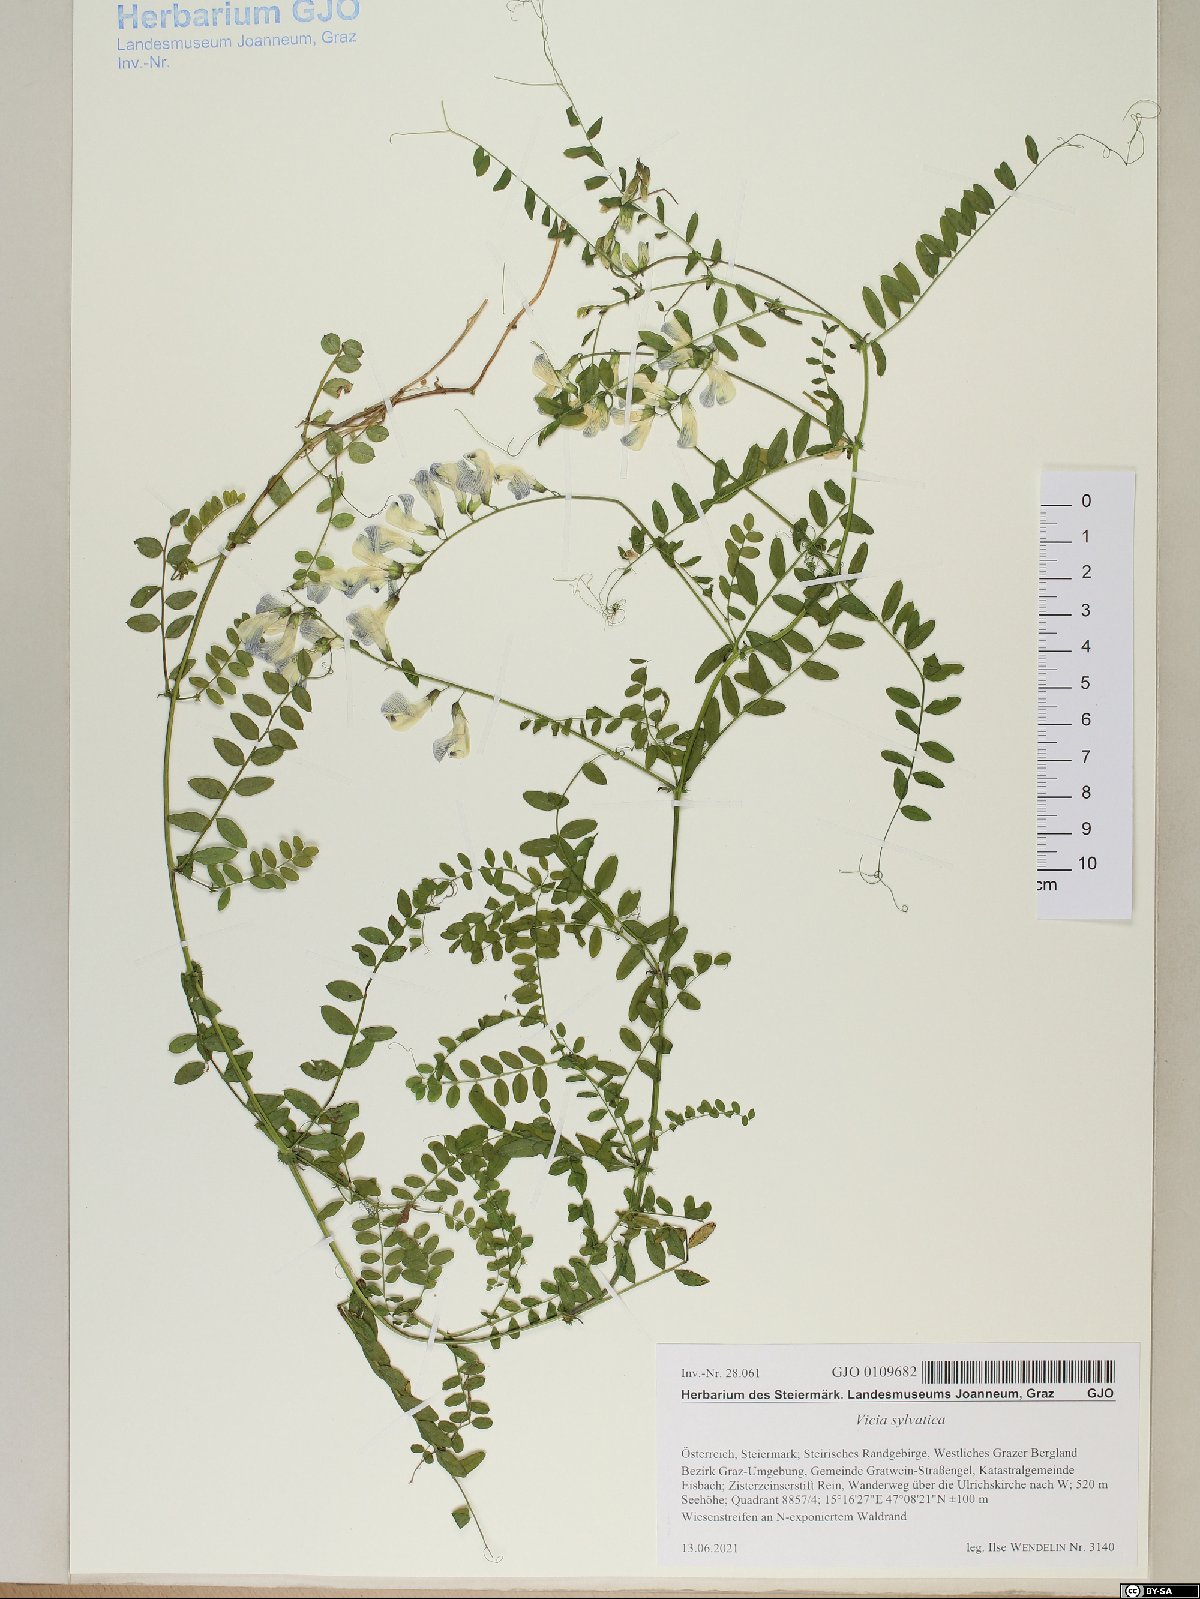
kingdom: Plantae
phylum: Tracheophyta
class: Magnoliopsida
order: Fabales
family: Fabaceae
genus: Vicia
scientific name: Vicia sylvatica
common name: Wood vetch
